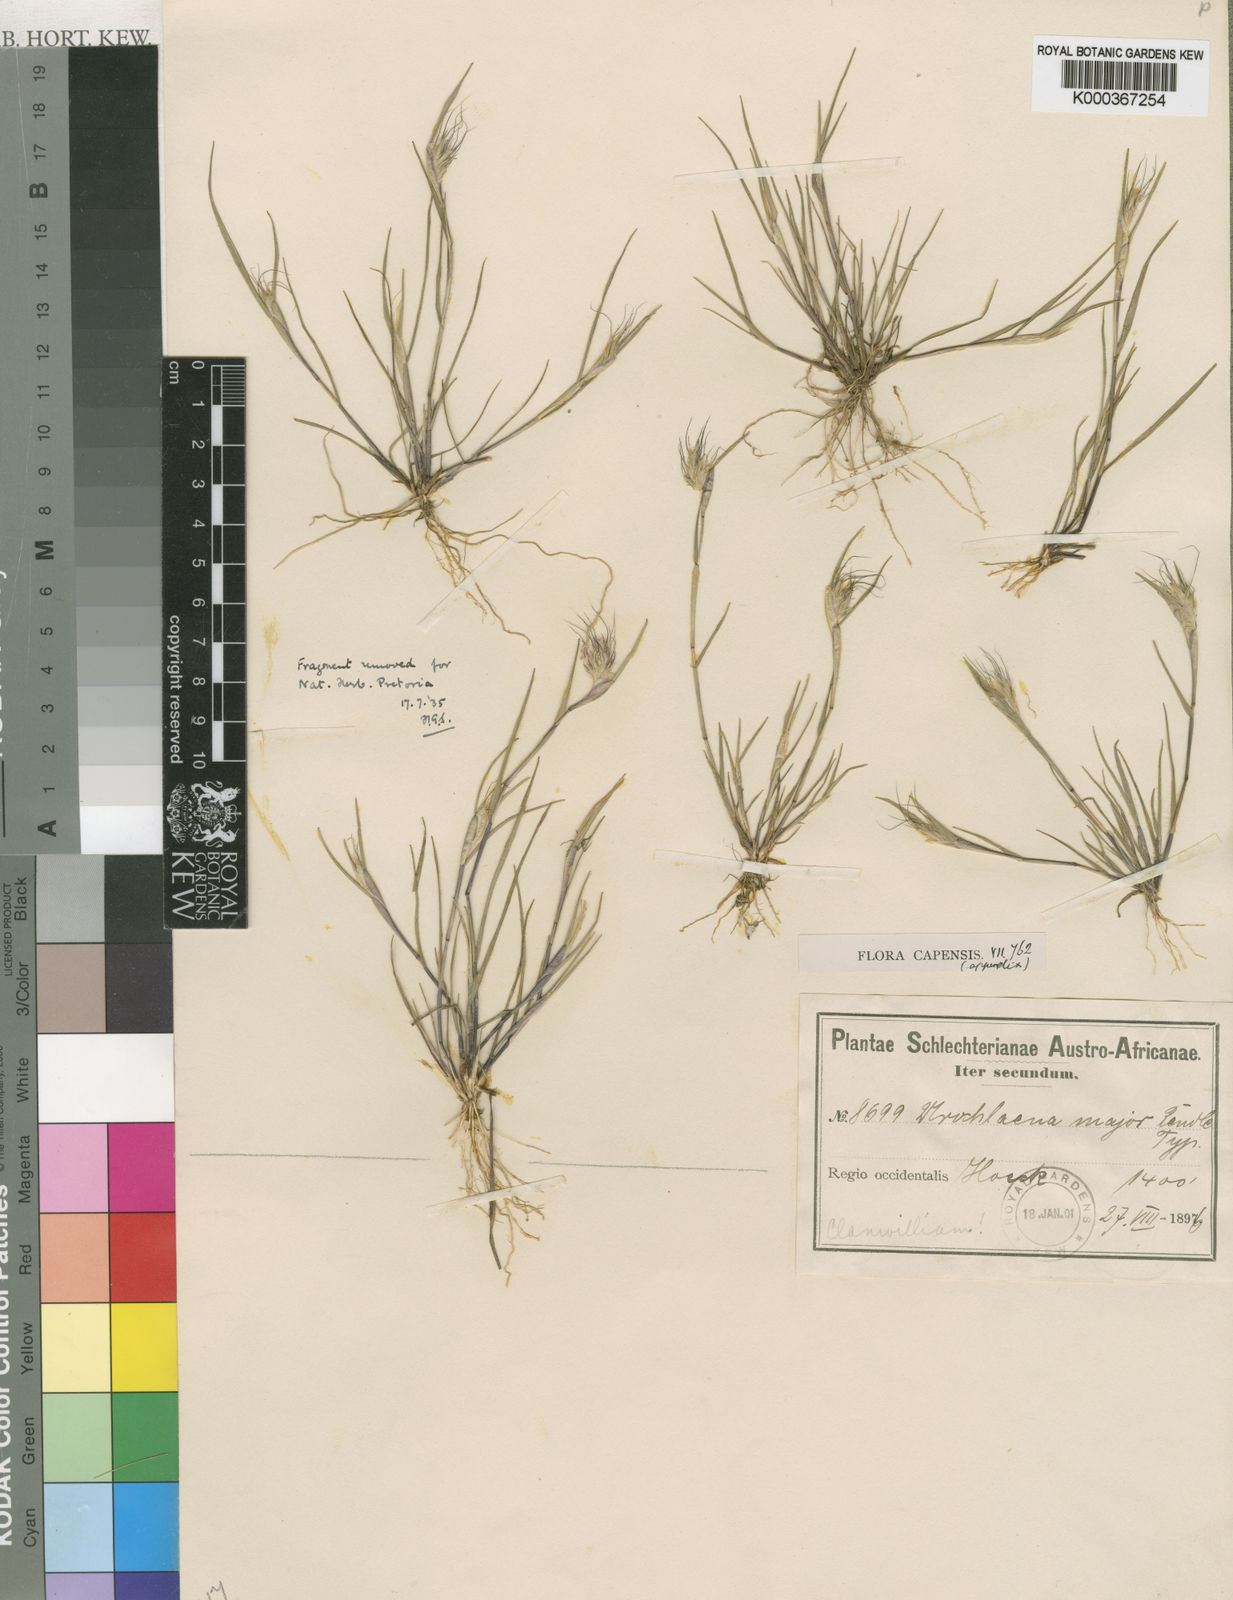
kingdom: Plantae
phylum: Tracheophyta
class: Liliopsida
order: Poales
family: Poaceae
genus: Tribolium
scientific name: Tribolium pusillum
